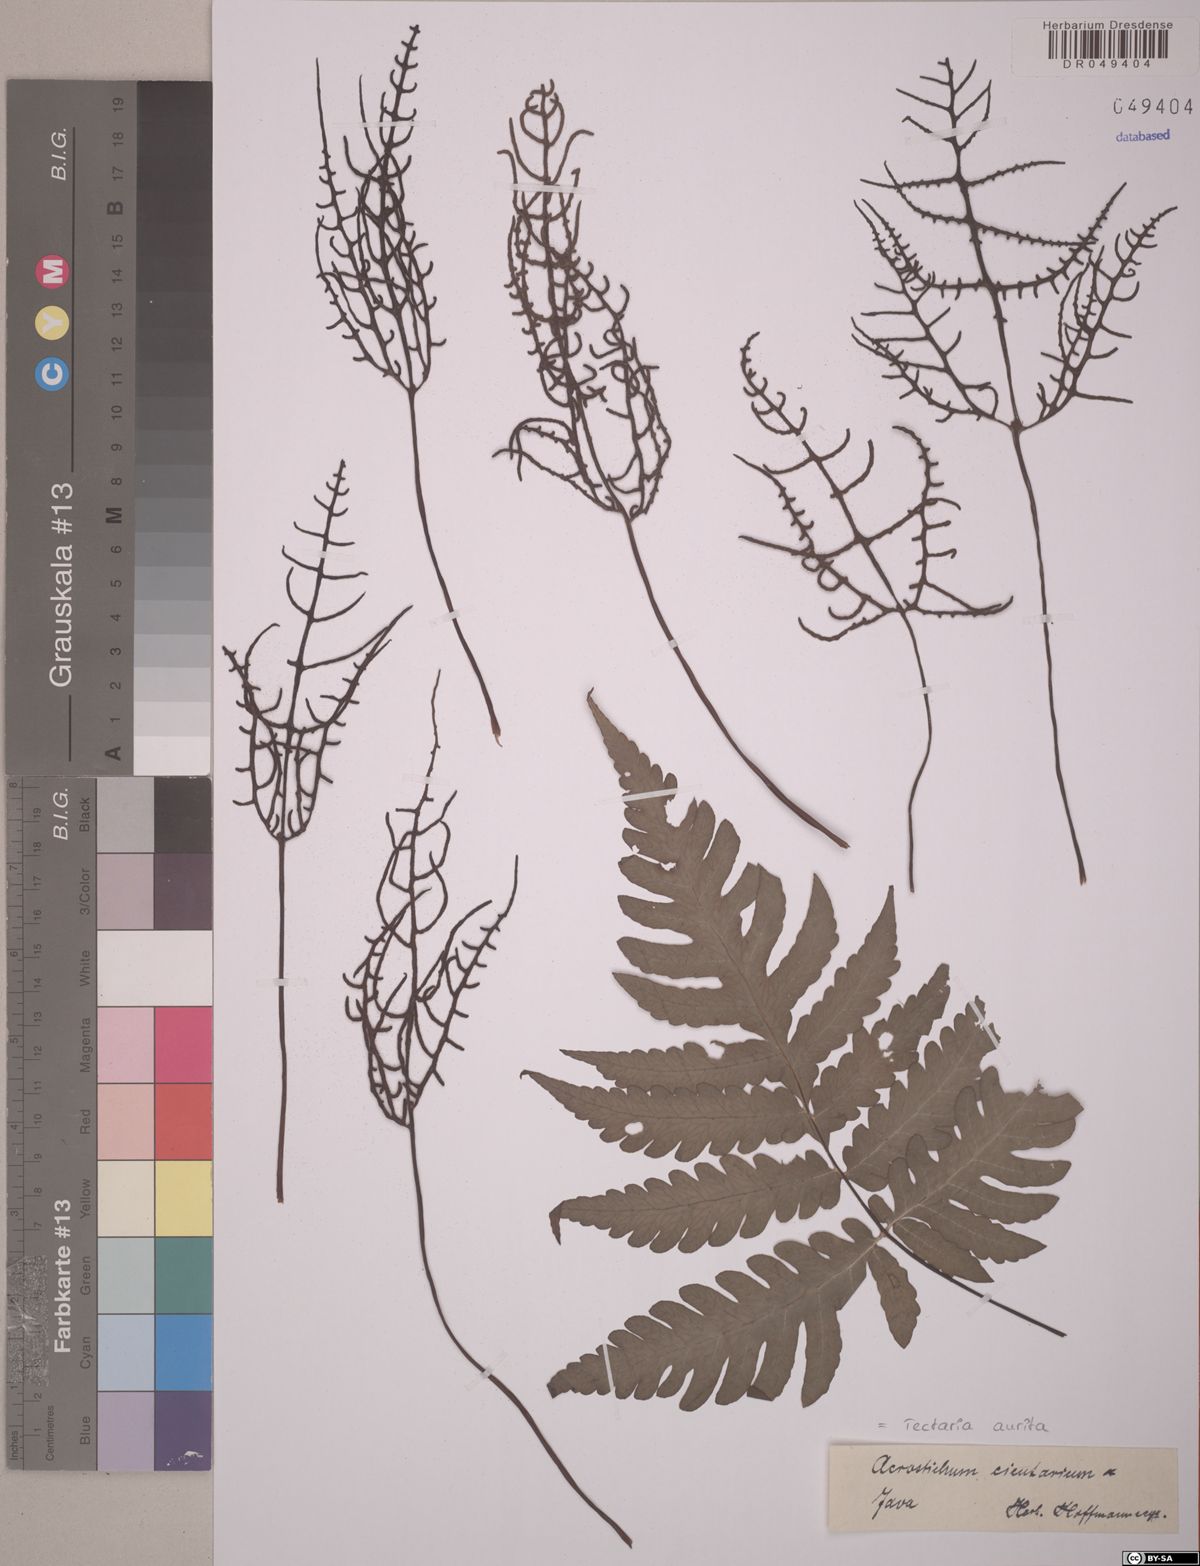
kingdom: Plantae
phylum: Tracheophyta
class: Polypodiopsida
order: Polypodiales
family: Tectariaceae
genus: Tectaria
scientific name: Tectaria aurita
